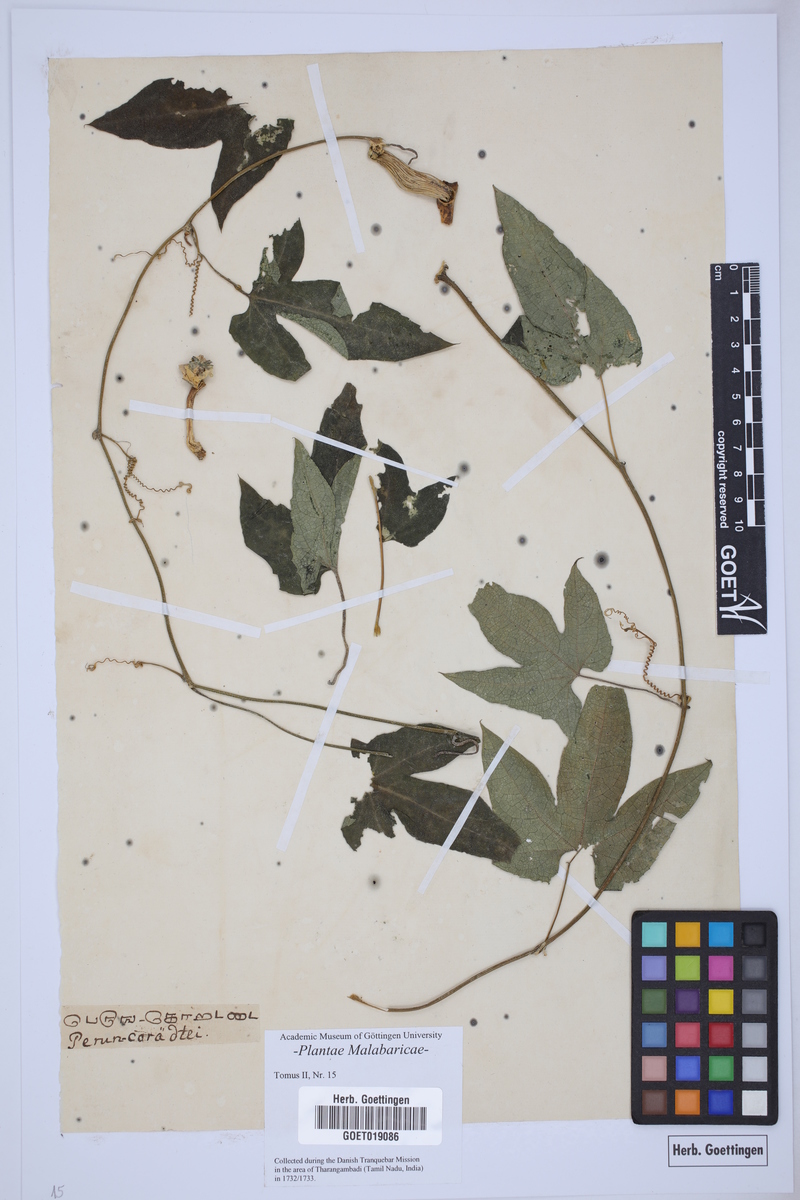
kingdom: Plantae
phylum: Tracheophyta
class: Magnoliopsida
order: Malpighiales
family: Passifloraceae
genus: Passiflora
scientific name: Passiflora
